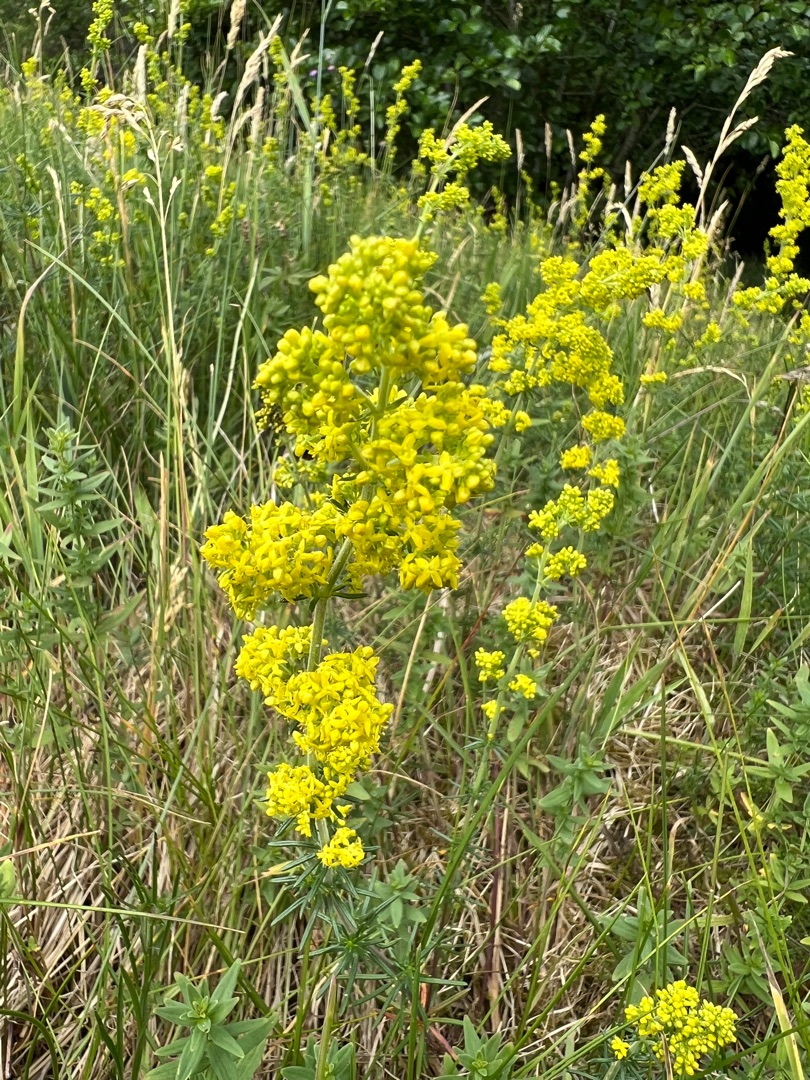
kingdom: Plantae
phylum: Tracheophyta
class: Magnoliopsida
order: Gentianales
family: Rubiaceae
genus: Galium
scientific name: Galium verum
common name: Gul snerre
